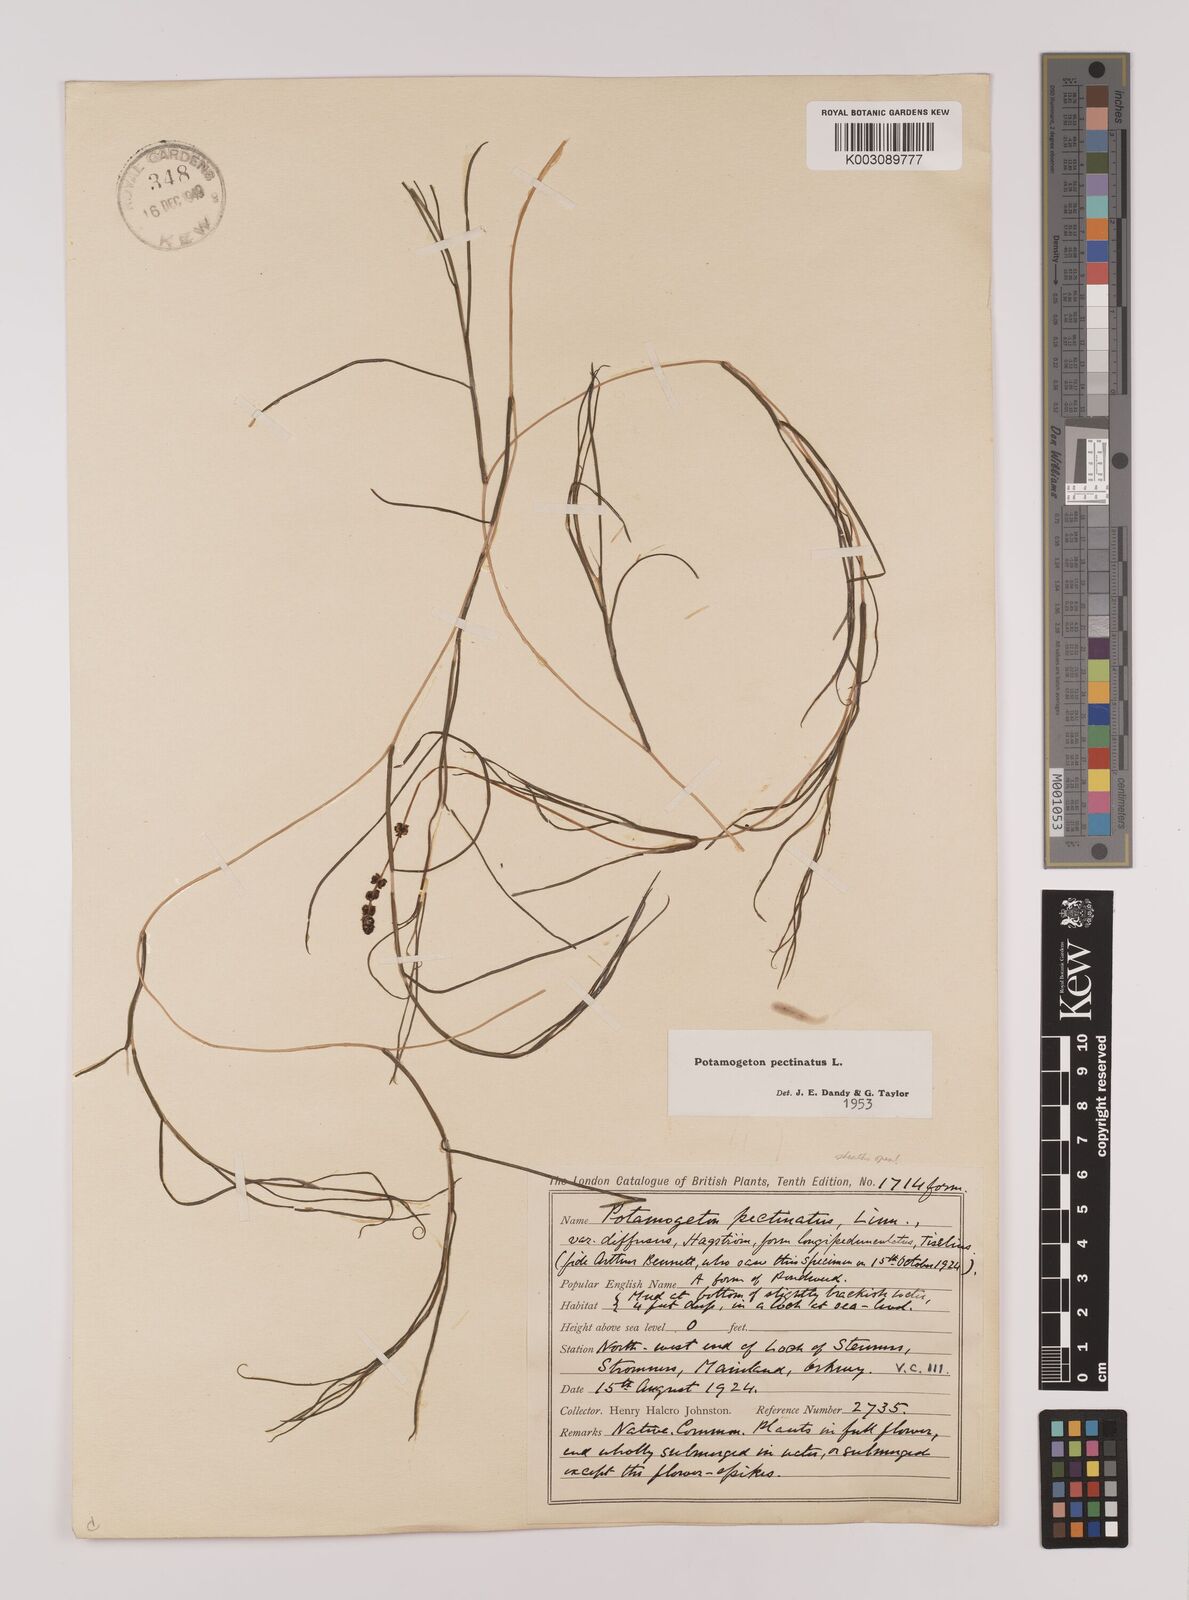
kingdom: Plantae
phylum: Tracheophyta
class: Liliopsida
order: Alismatales
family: Potamogetonaceae
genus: Stuckenia
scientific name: Stuckenia pectinata
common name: Sago pondweed
